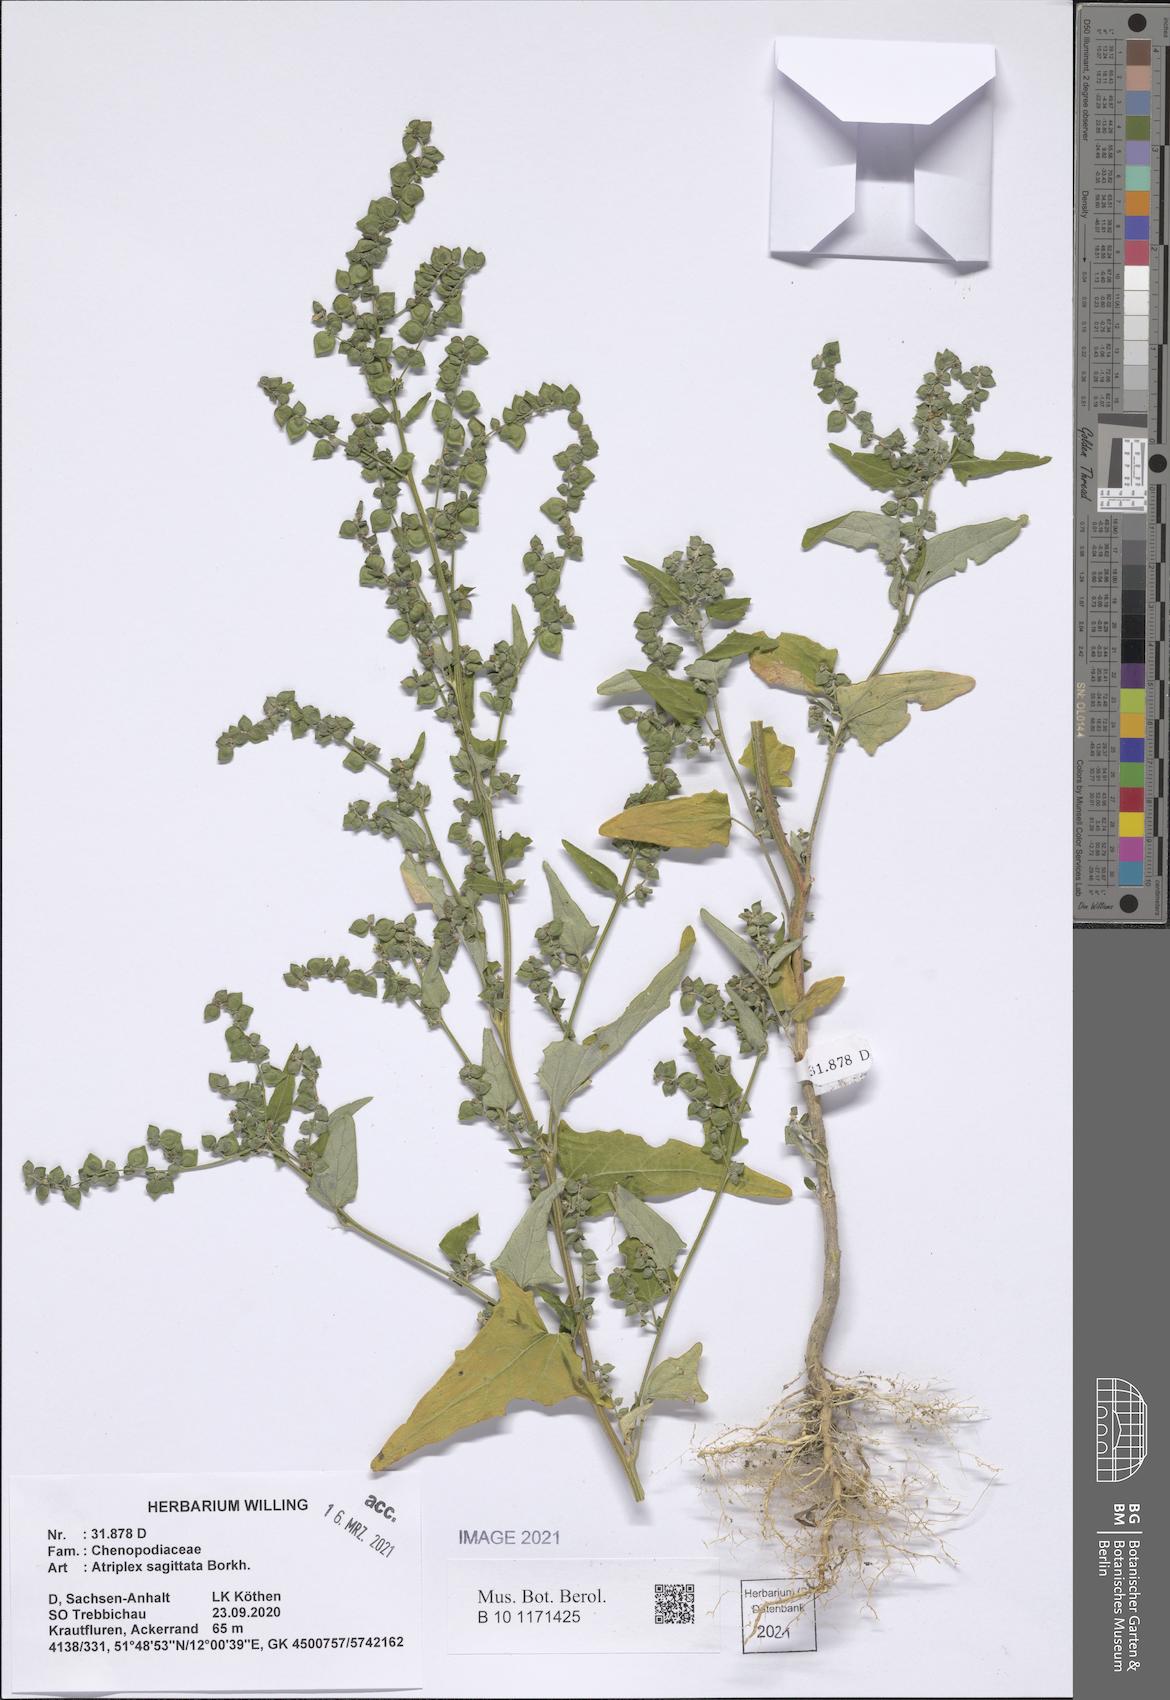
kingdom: Plantae
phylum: Tracheophyta
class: Magnoliopsida
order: Caryophyllales
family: Amaranthaceae
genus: Atriplex
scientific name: Atriplex sagittata
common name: Purple orache
